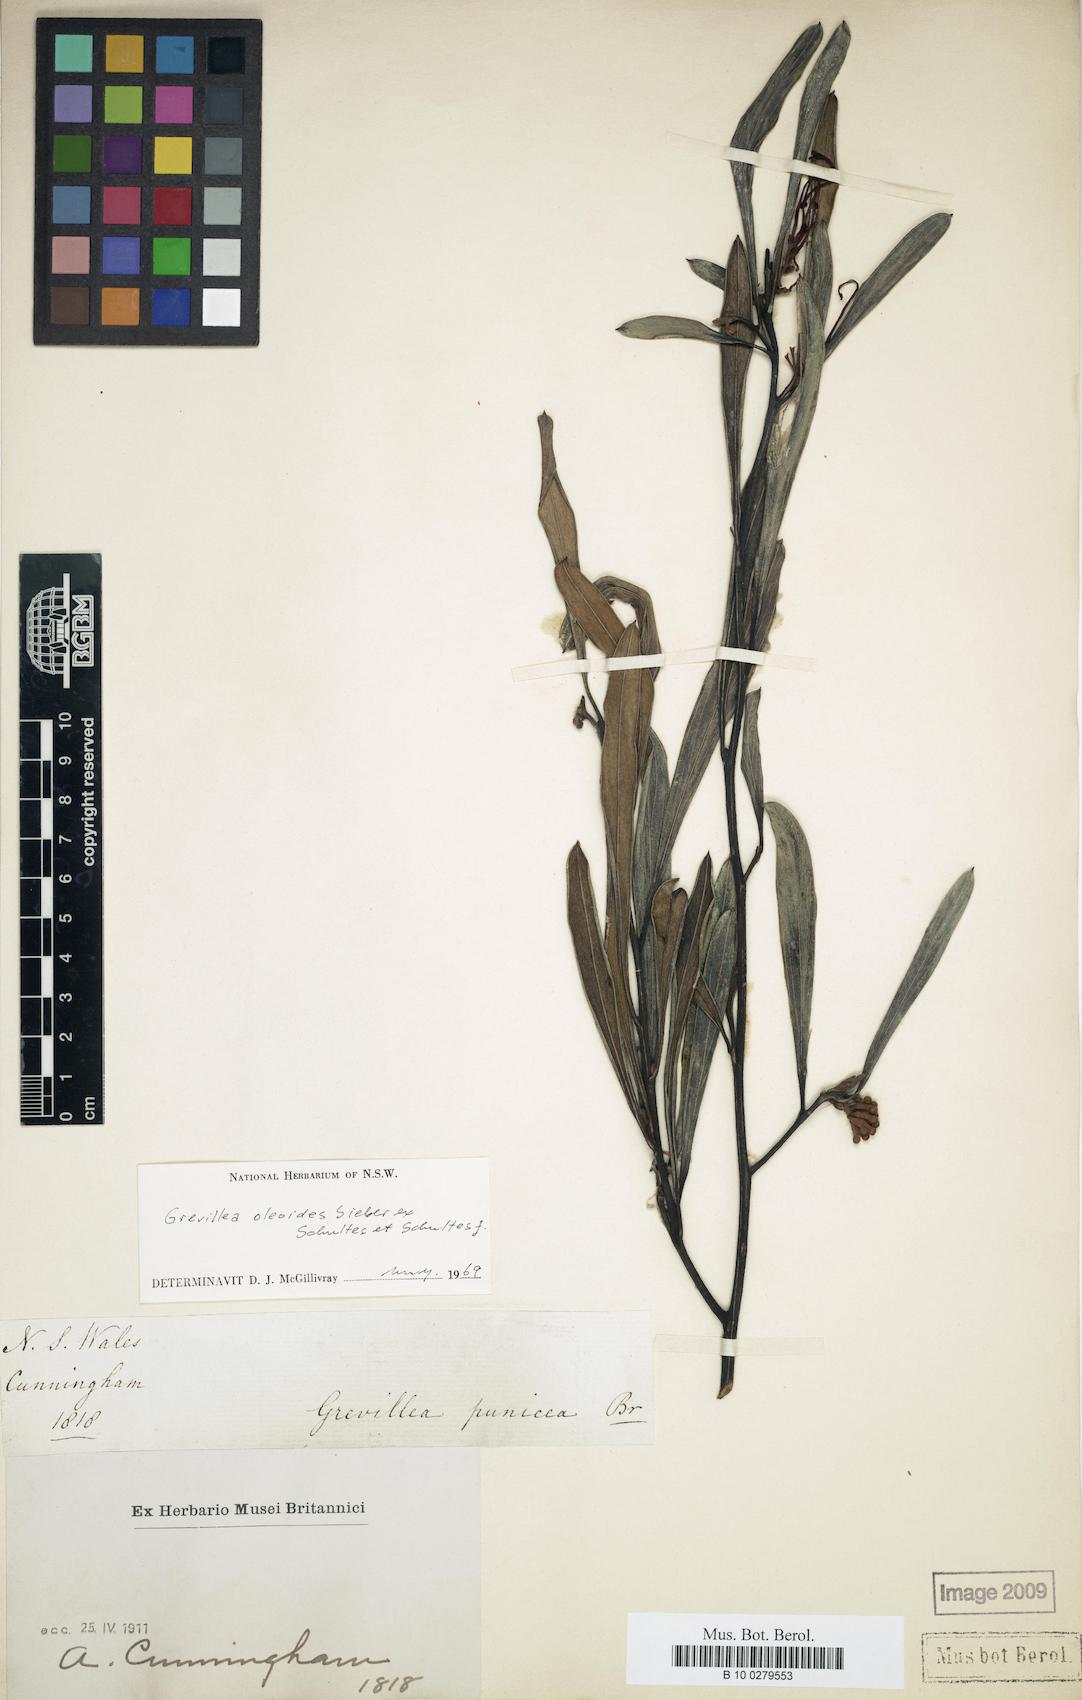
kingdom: Plantae
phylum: Tracheophyta
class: Magnoliopsida
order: Proteales
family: Proteaceae
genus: Grevillea
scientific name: Grevillea oleoides
